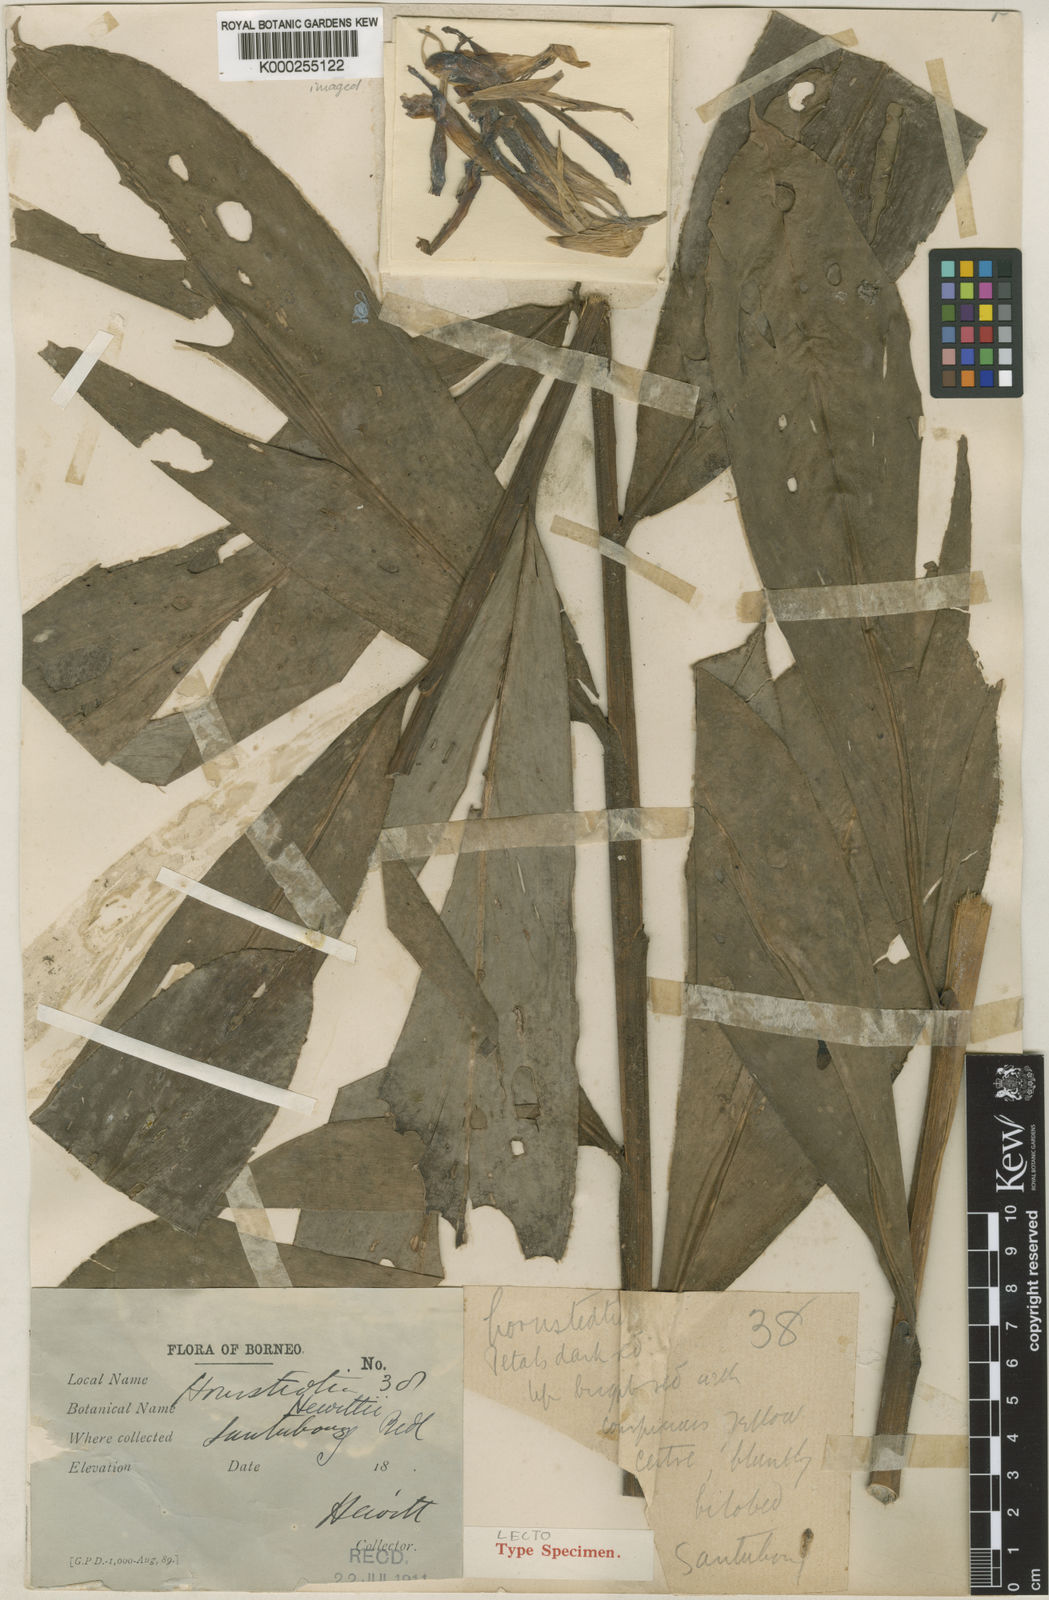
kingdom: Plantae
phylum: Tracheophyta
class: Liliopsida
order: Zingiberales
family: Zingiberaceae
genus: Etlingera
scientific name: Etlingera nasuta
